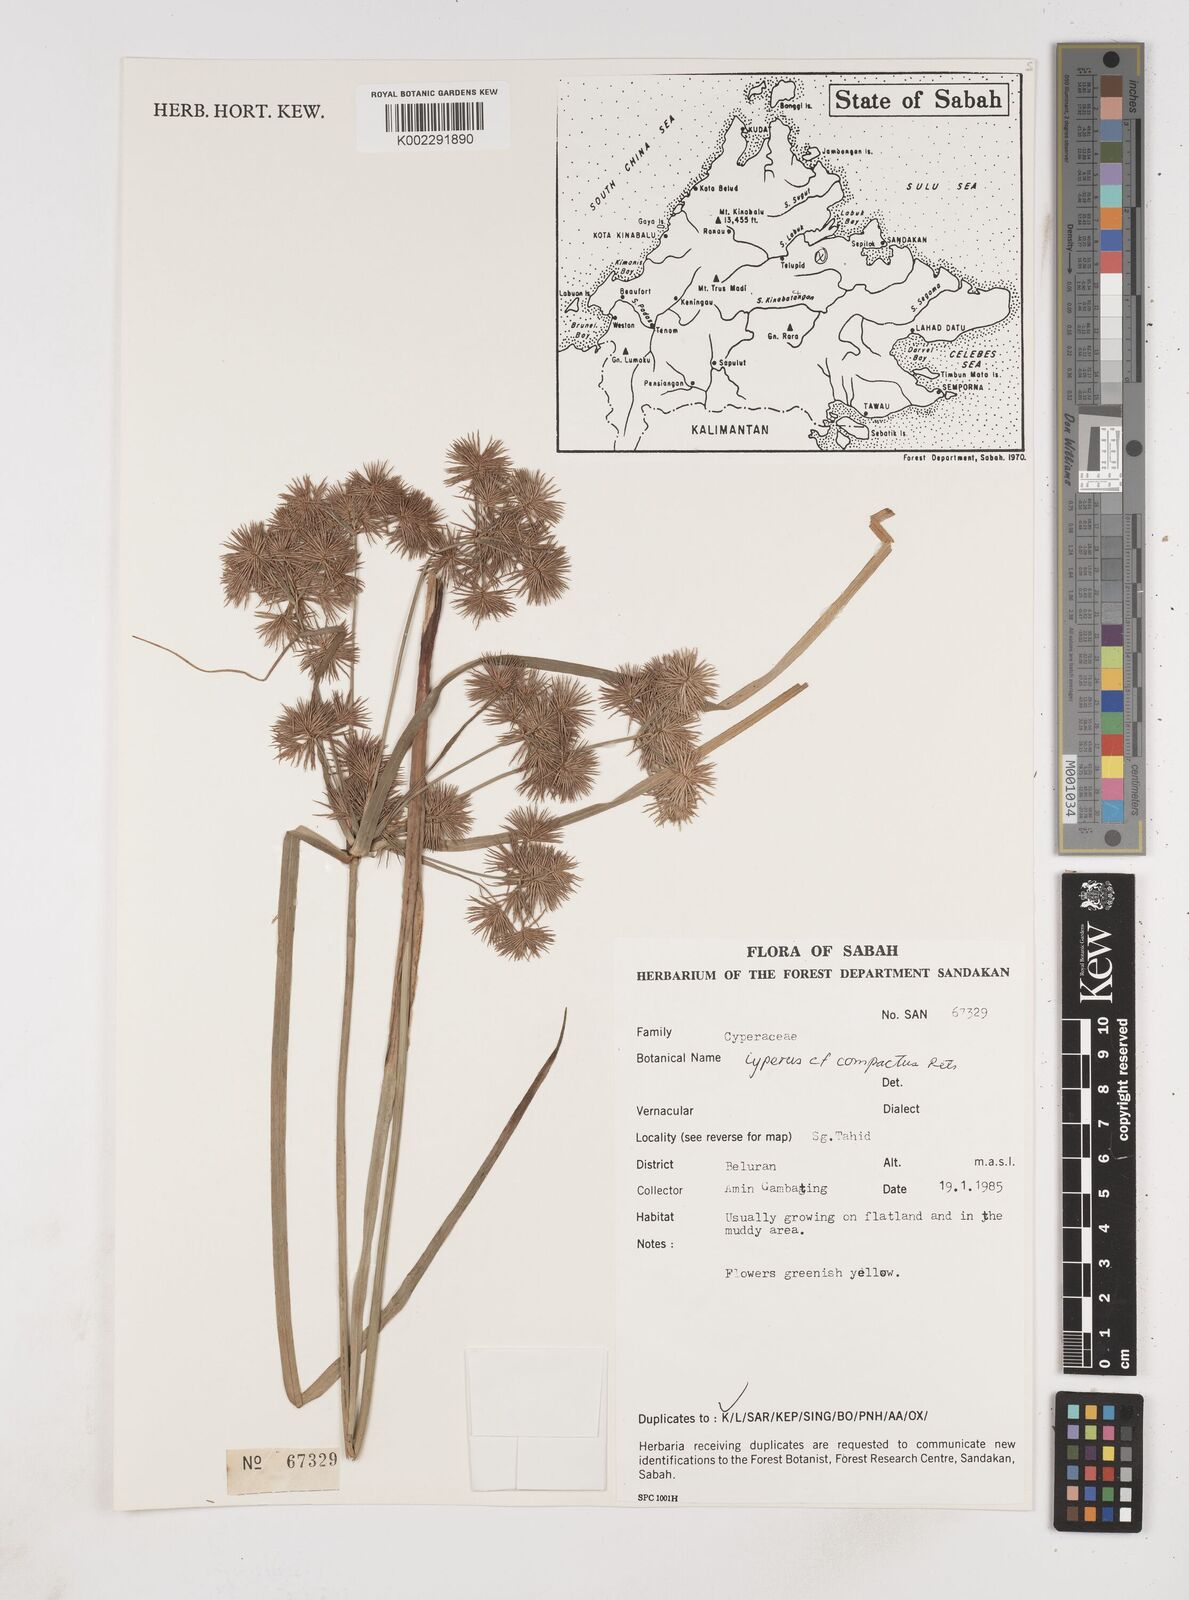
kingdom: Plantae
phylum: Tracheophyta
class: Liliopsida
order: Poales
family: Cyperaceae
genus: Cyperus
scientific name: Cyperus compactus
